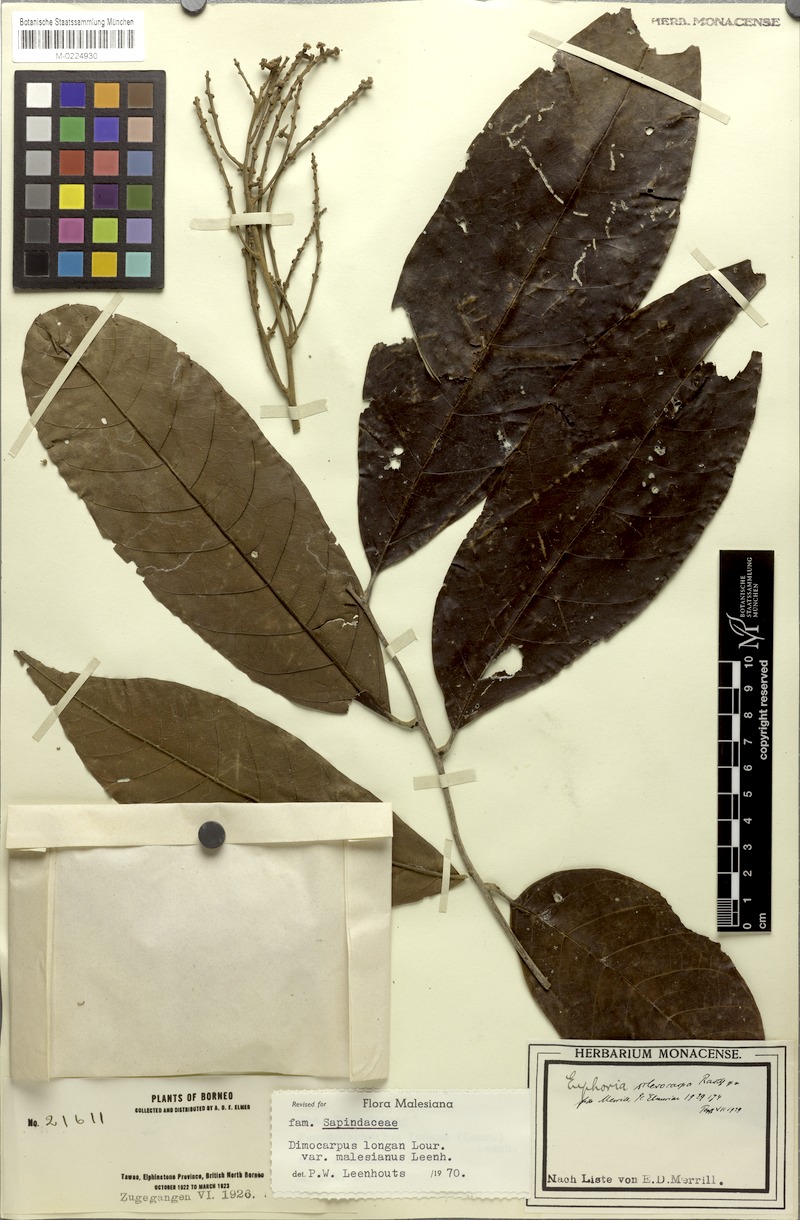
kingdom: Plantae
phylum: Tracheophyta
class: Magnoliopsida
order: Sapindales
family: Sapindaceae
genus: Litchi
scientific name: Litchi Euphoria sclerocarpa
